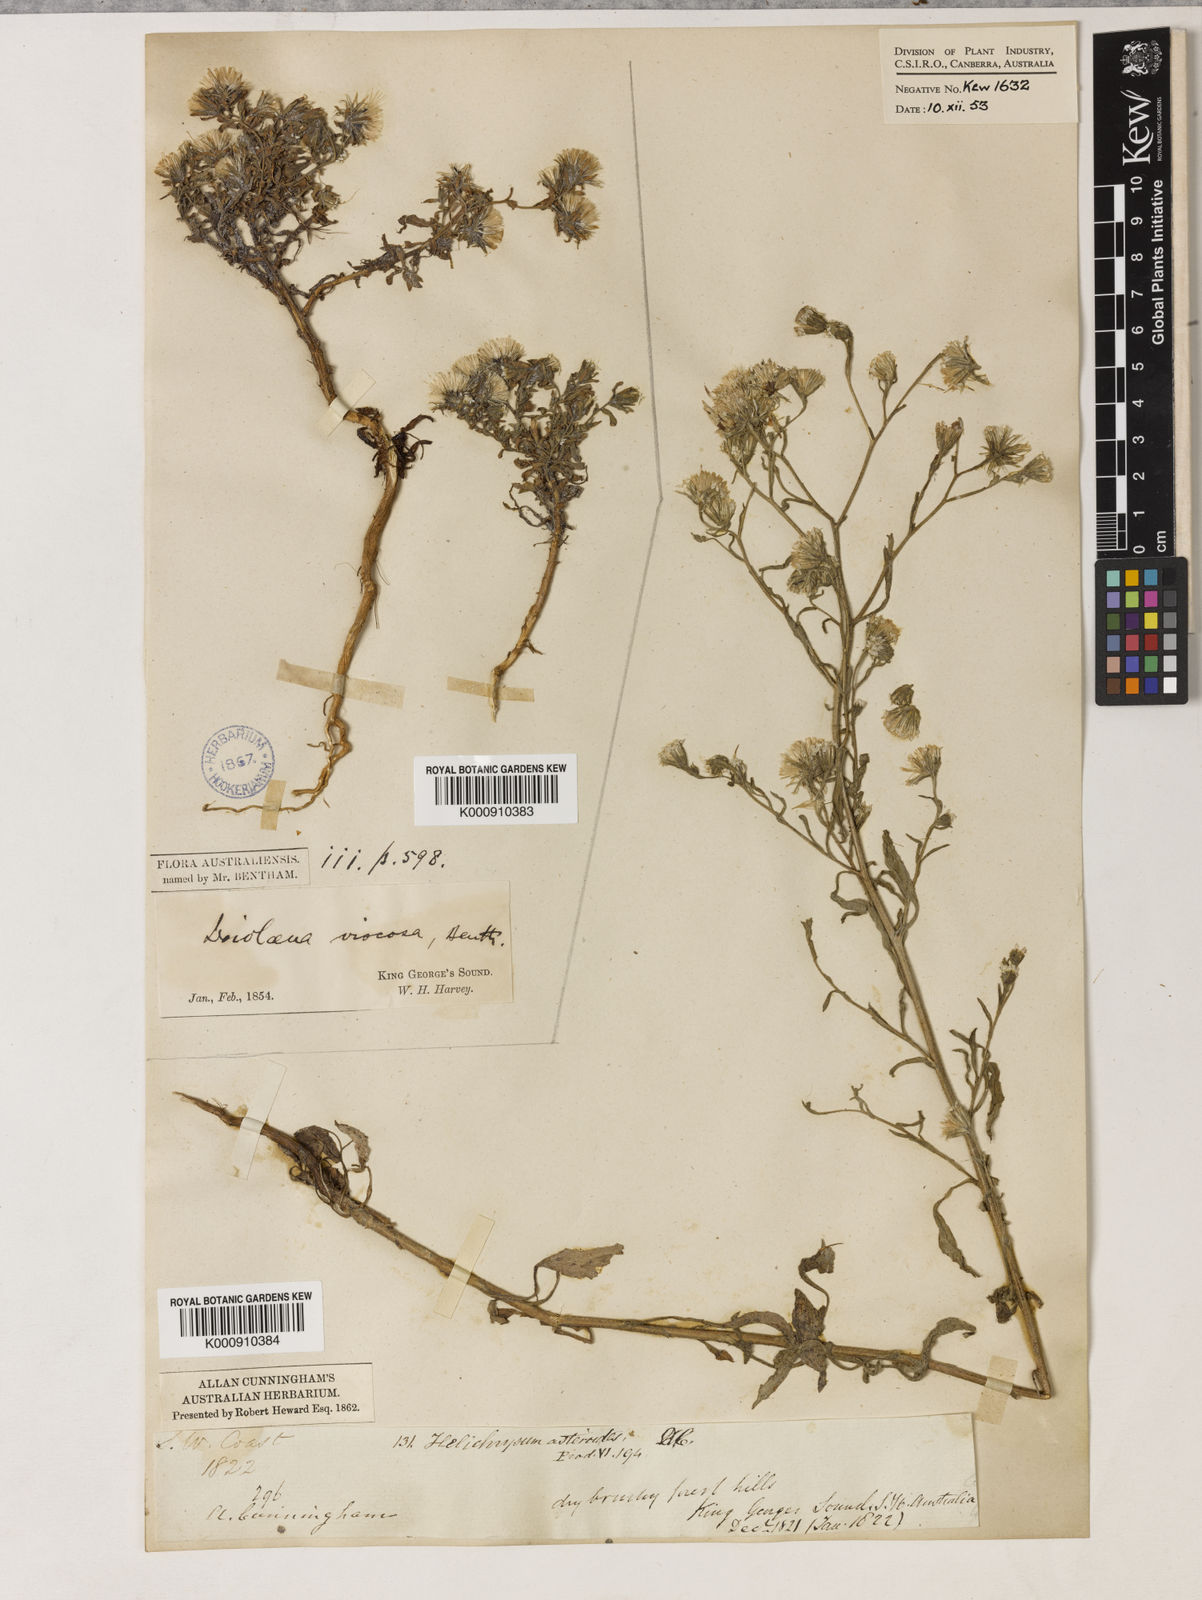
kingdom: Plantae
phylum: Tracheophyta
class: Magnoliopsida
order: Asterales
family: Asteraceae
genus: Ixiolaena
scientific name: Ixiolaena viscosa
